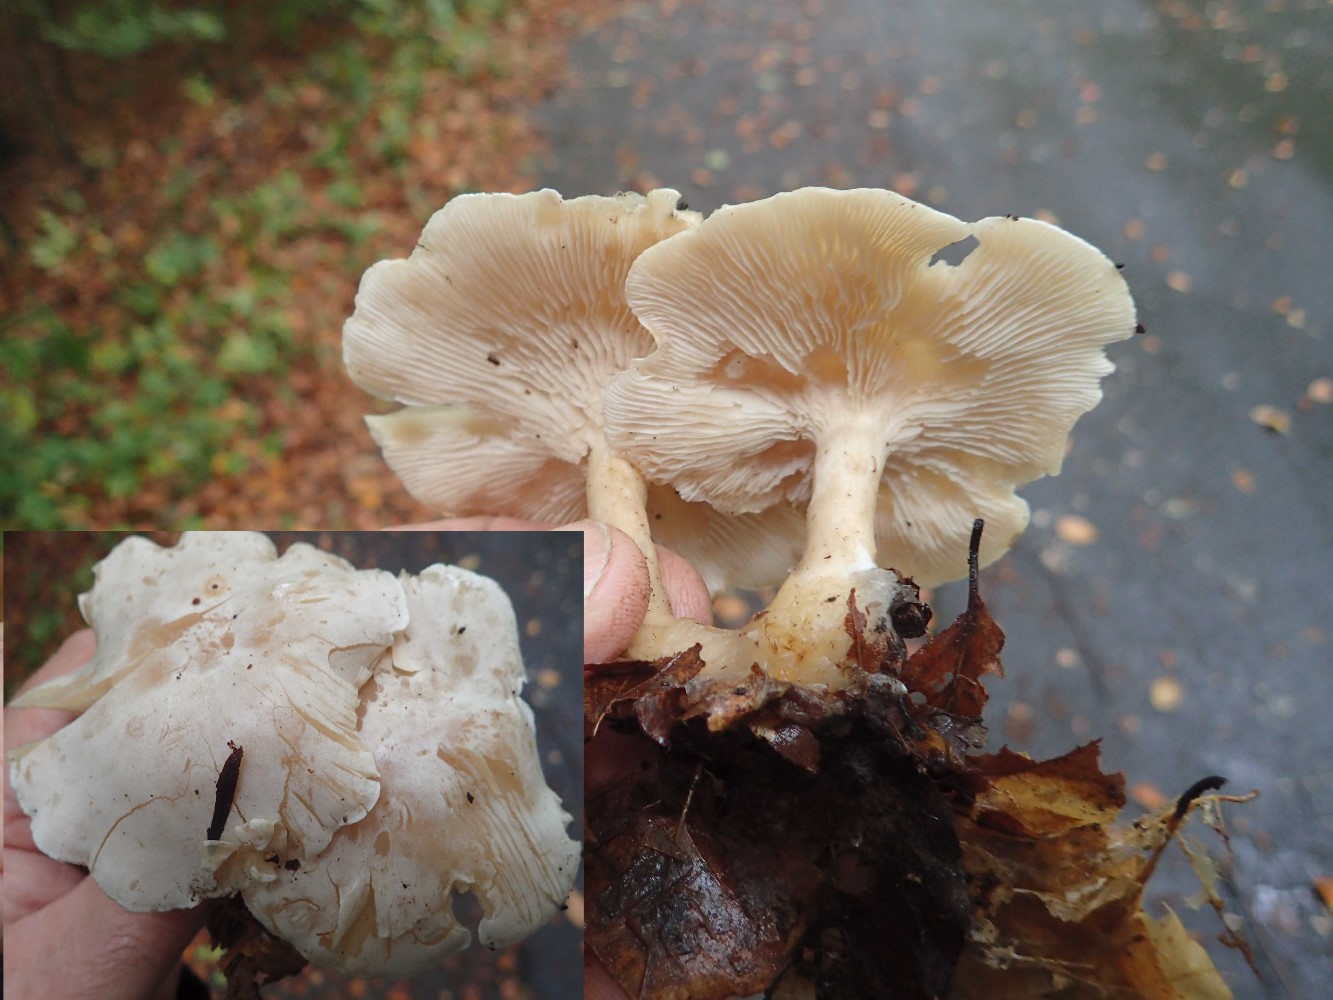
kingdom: Fungi
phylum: Basidiomycota
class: Agaricomycetes
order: Agaricales
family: Tricholomataceae
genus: Leucocybe
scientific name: Leucocybe connata
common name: knippe-tragthat
